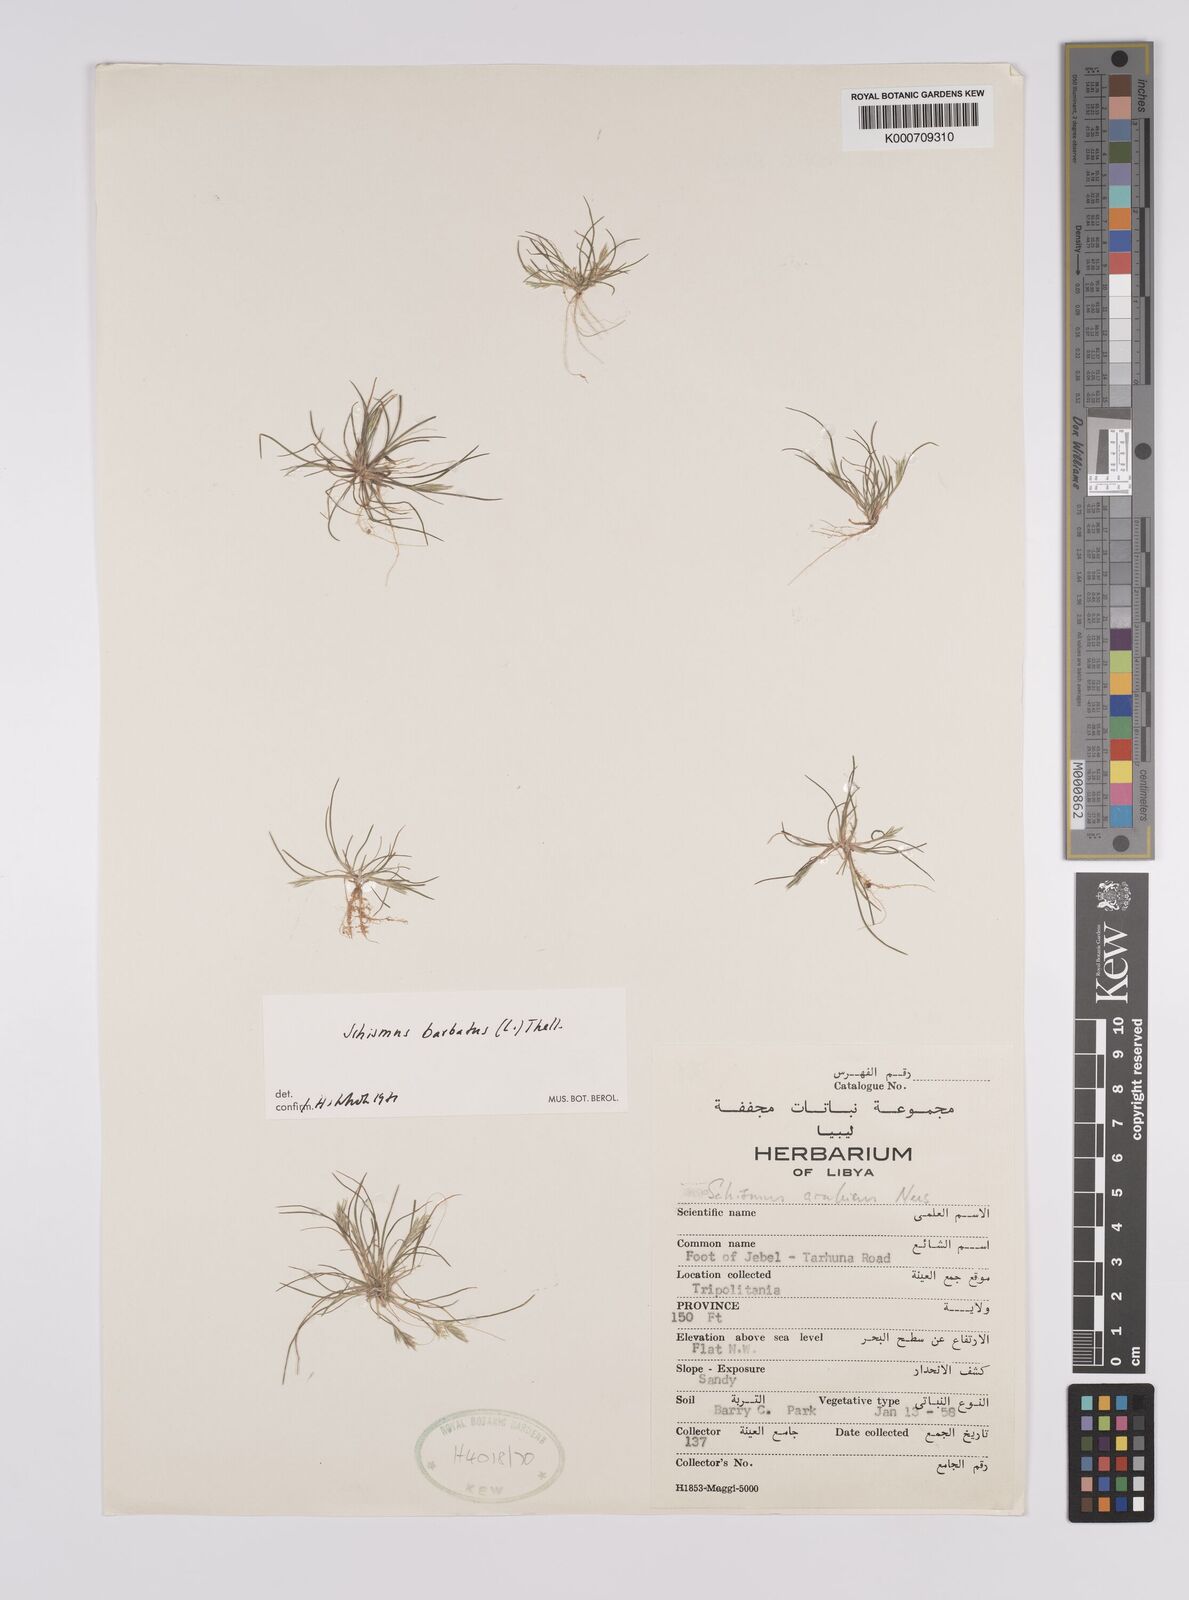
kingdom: Plantae
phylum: Tracheophyta
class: Liliopsida
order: Poales
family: Poaceae
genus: Schismus
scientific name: Schismus barbatus
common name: Kelch-grass
